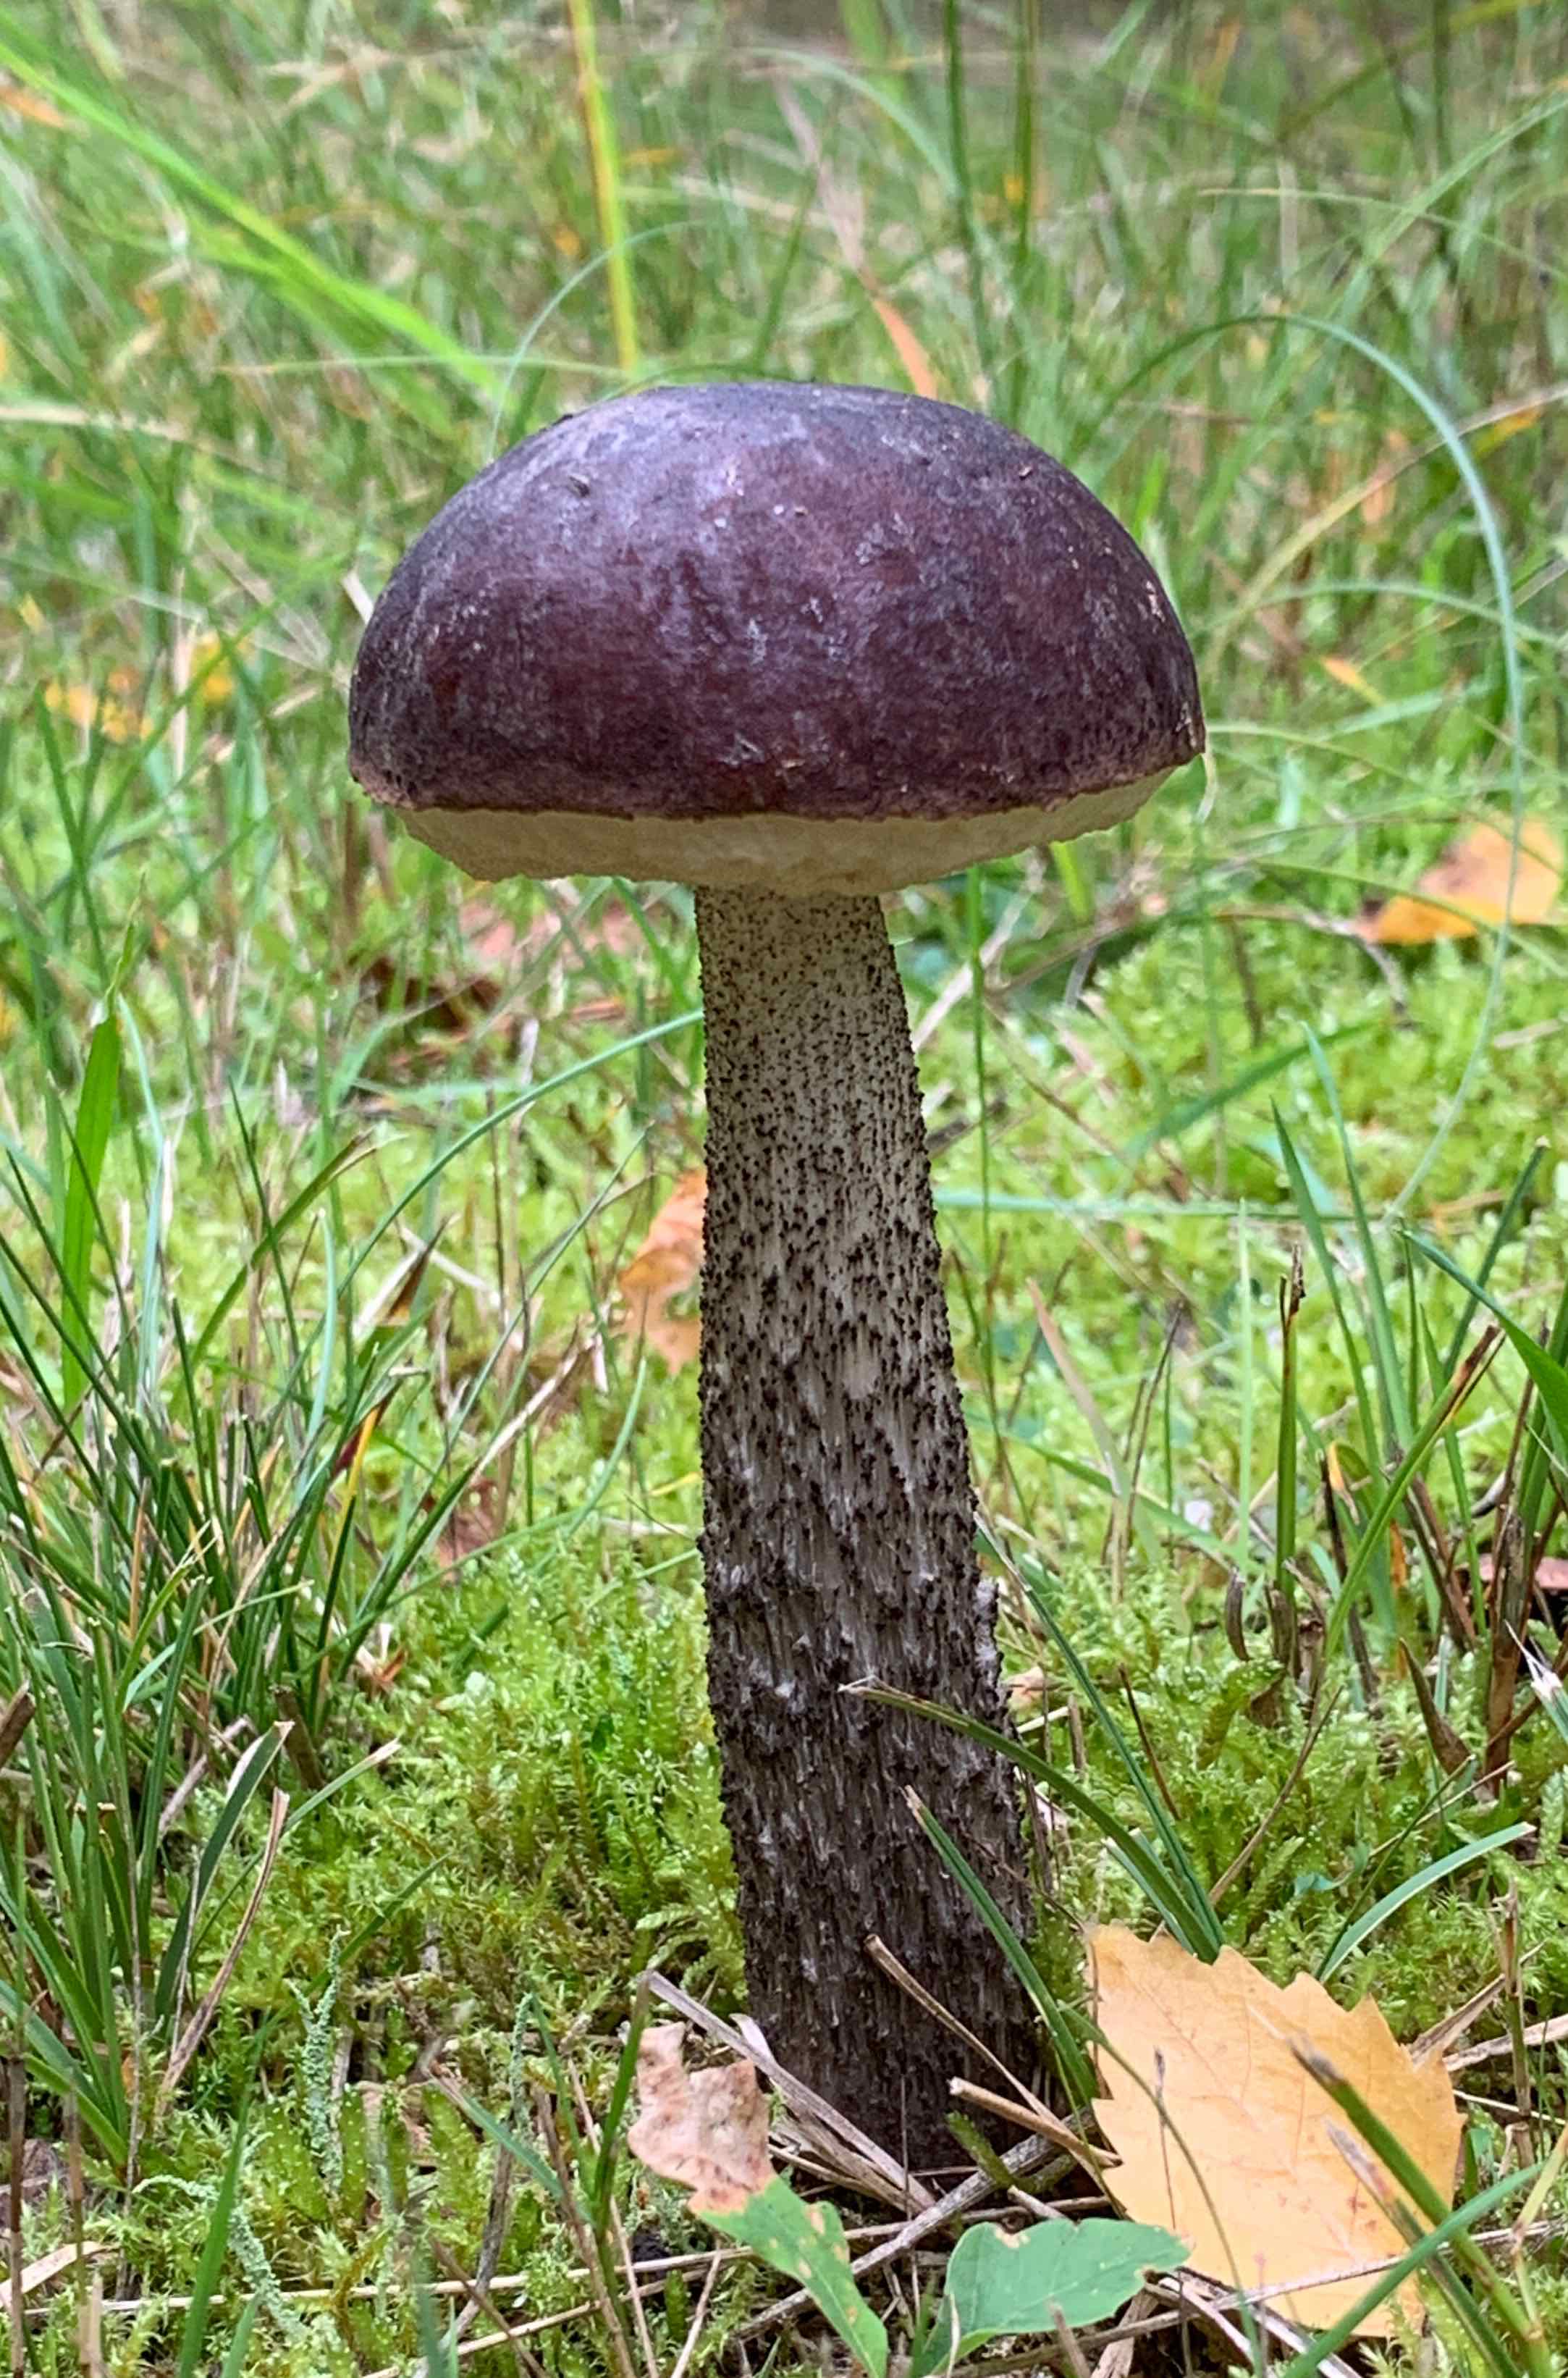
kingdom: Fungi
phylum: Basidiomycota
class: Agaricomycetes
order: Boletales
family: Boletaceae
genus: Leccinum
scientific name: Leccinum scabrum
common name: brun skælrørhat
